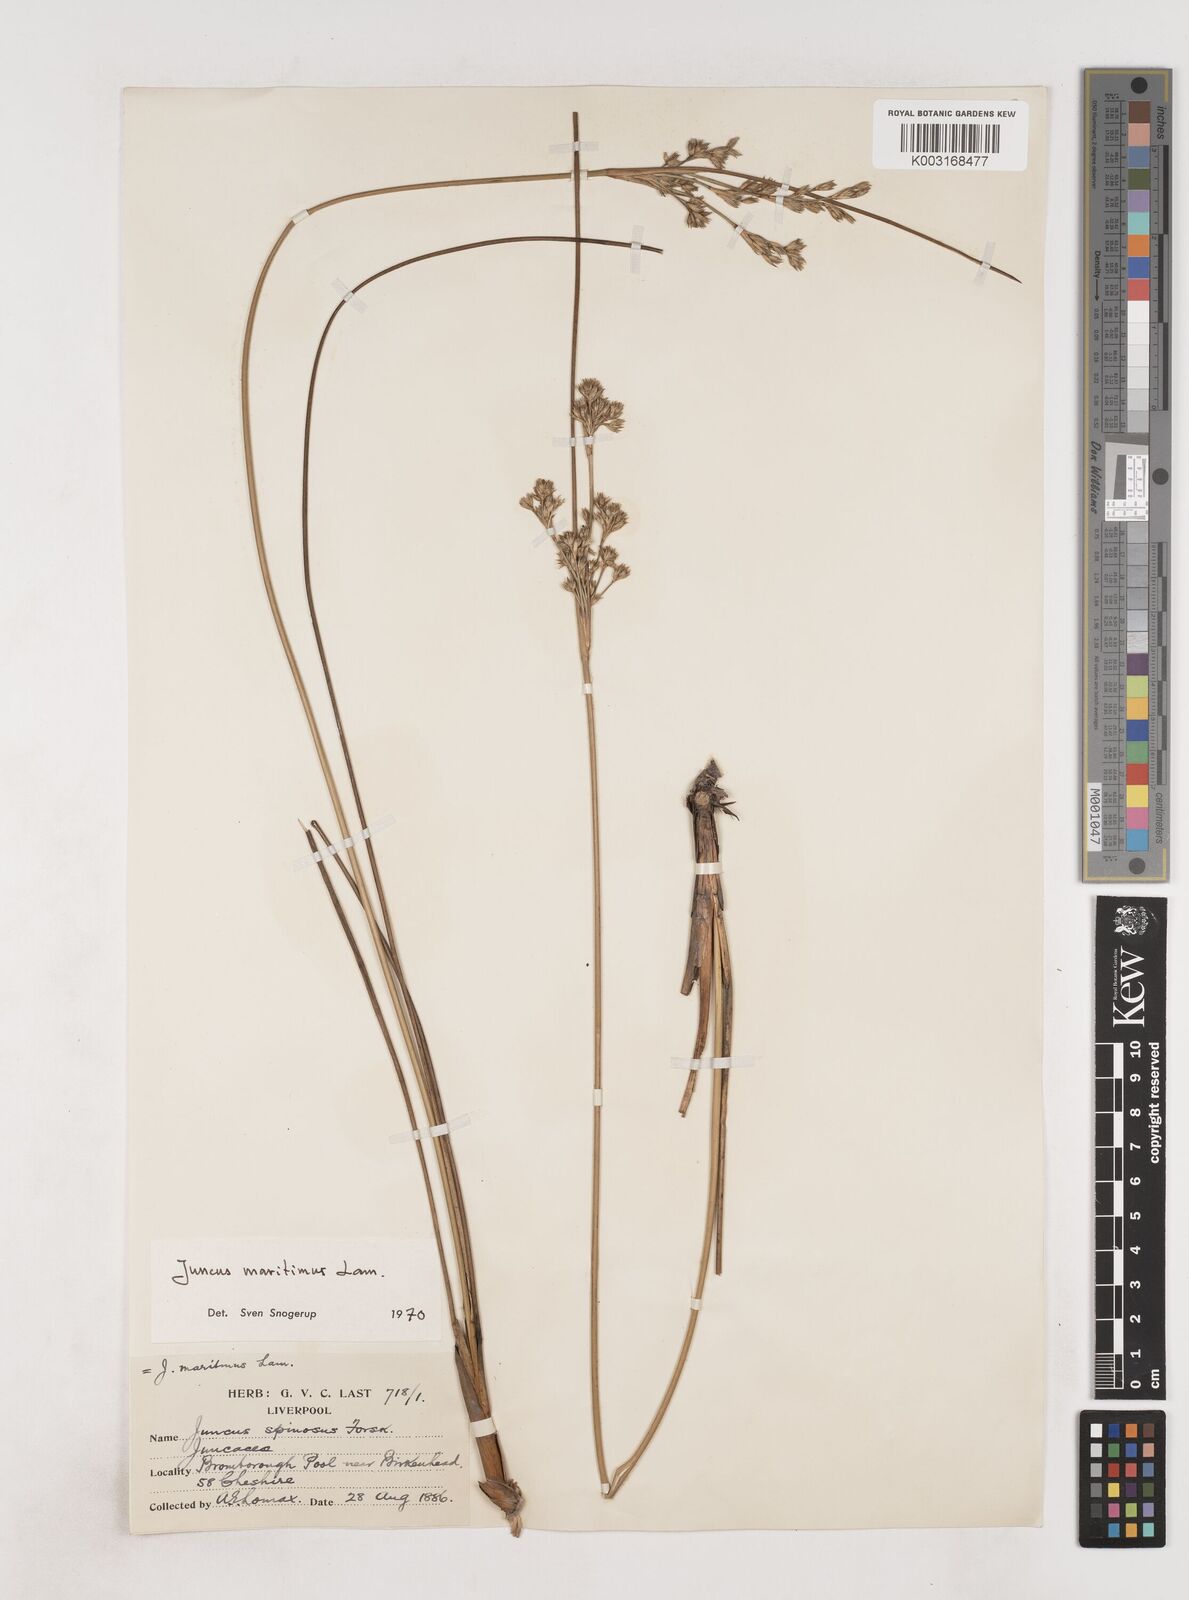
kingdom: Plantae
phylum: Tracheophyta
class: Liliopsida
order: Poales
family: Juncaceae
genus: Juncus
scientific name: Juncus maritimus
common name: Sea rush
